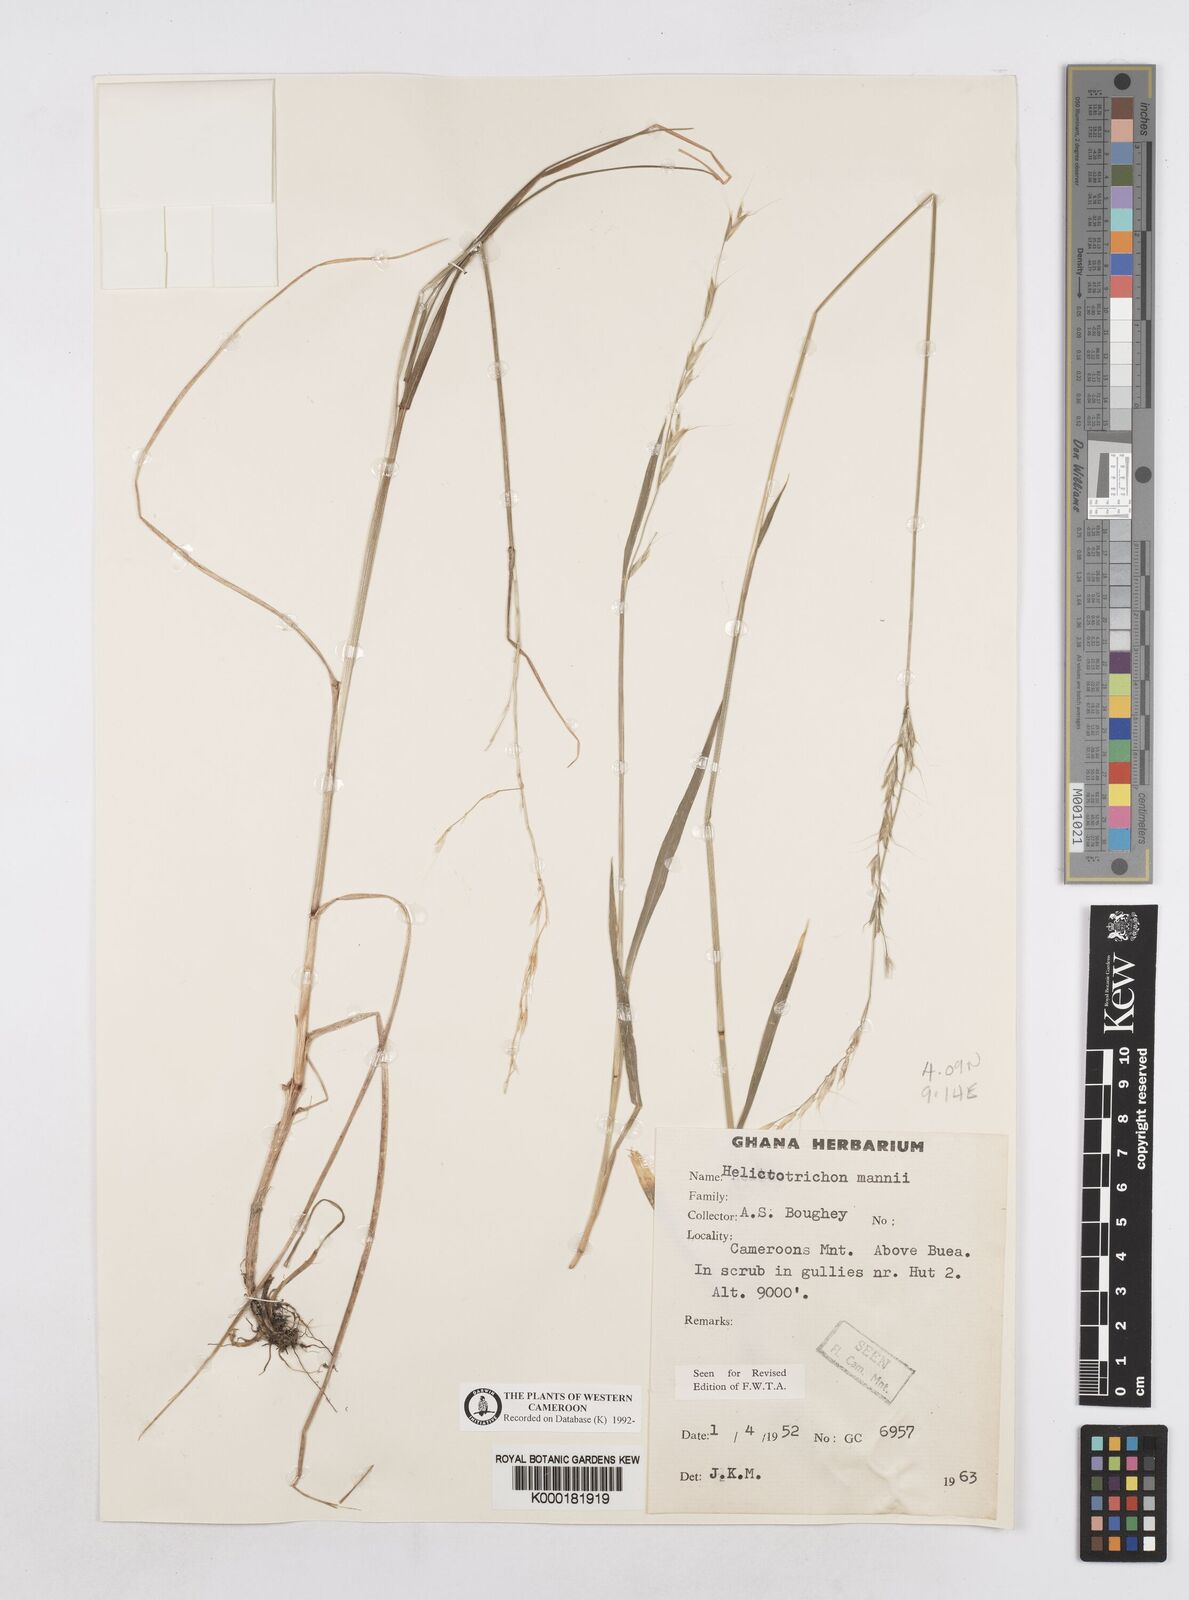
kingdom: Plantae
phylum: Tracheophyta
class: Liliopsida
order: Poales
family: Poaceae
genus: Trisetopsis
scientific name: Trisetopsis mannii
